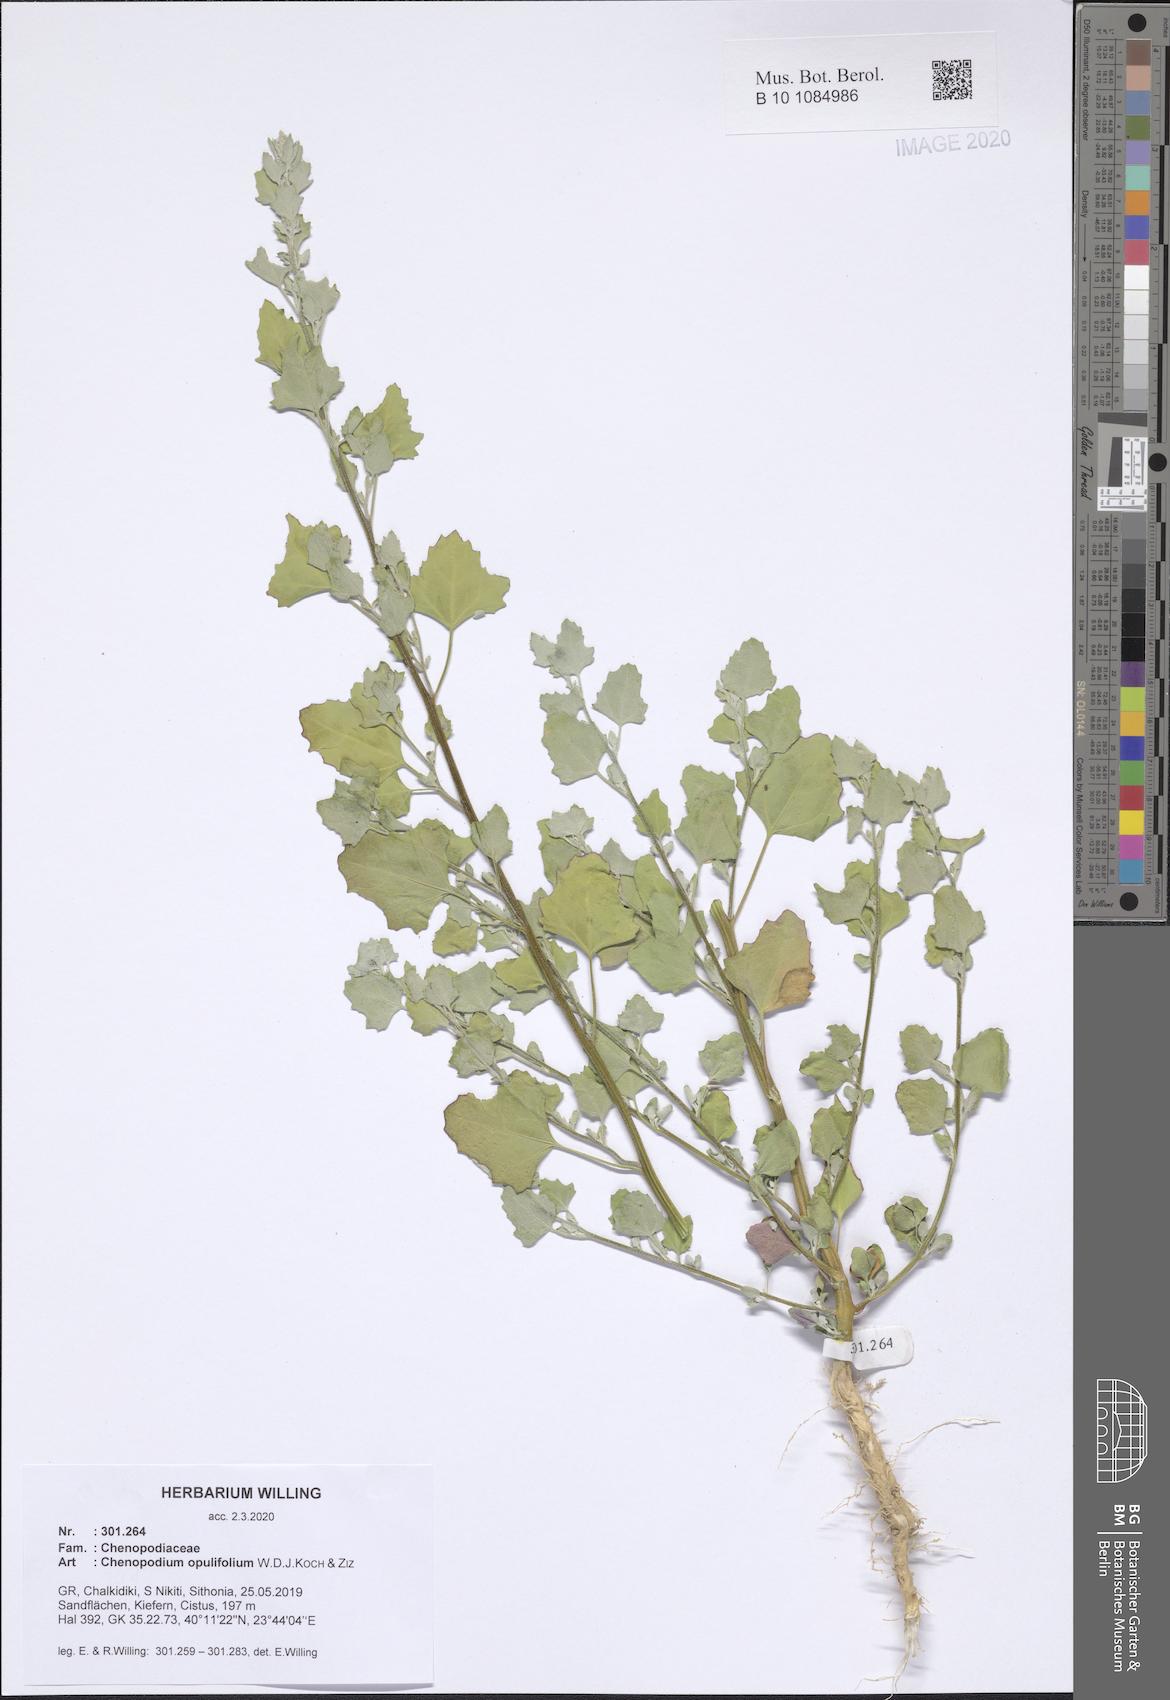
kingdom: Plantae
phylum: Tracheophyta
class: Magnoliopsida
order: Caryophyllales
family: Amaranthaceae
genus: Chenopodium
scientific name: Chenopodium opulifolium
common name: Grey goosefoot
